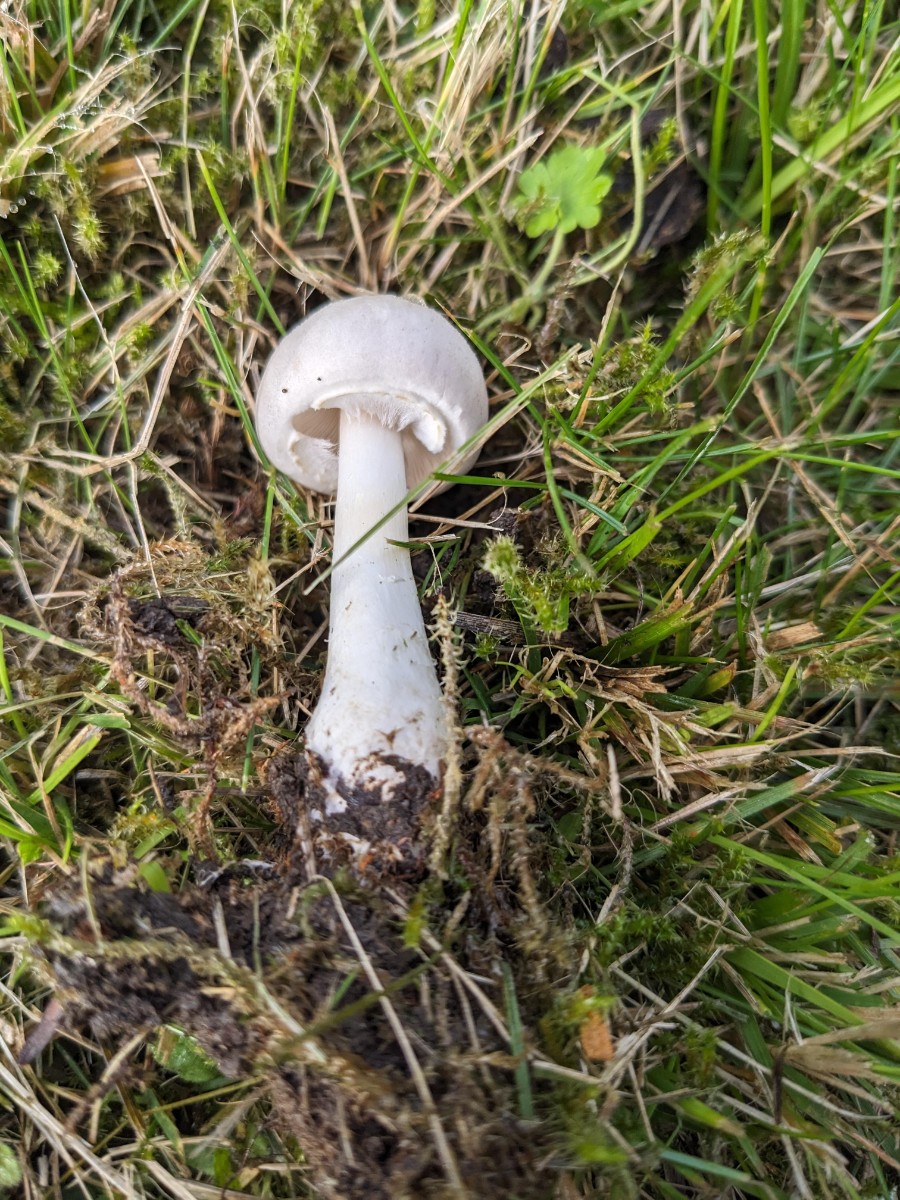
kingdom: Fungi
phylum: Basidiomycota
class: Agaricomycetes
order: Agaricales
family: Agaricaceae
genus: Leucoagaricus
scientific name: Leucoagaricus leucothites
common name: rosabladet silkehat
